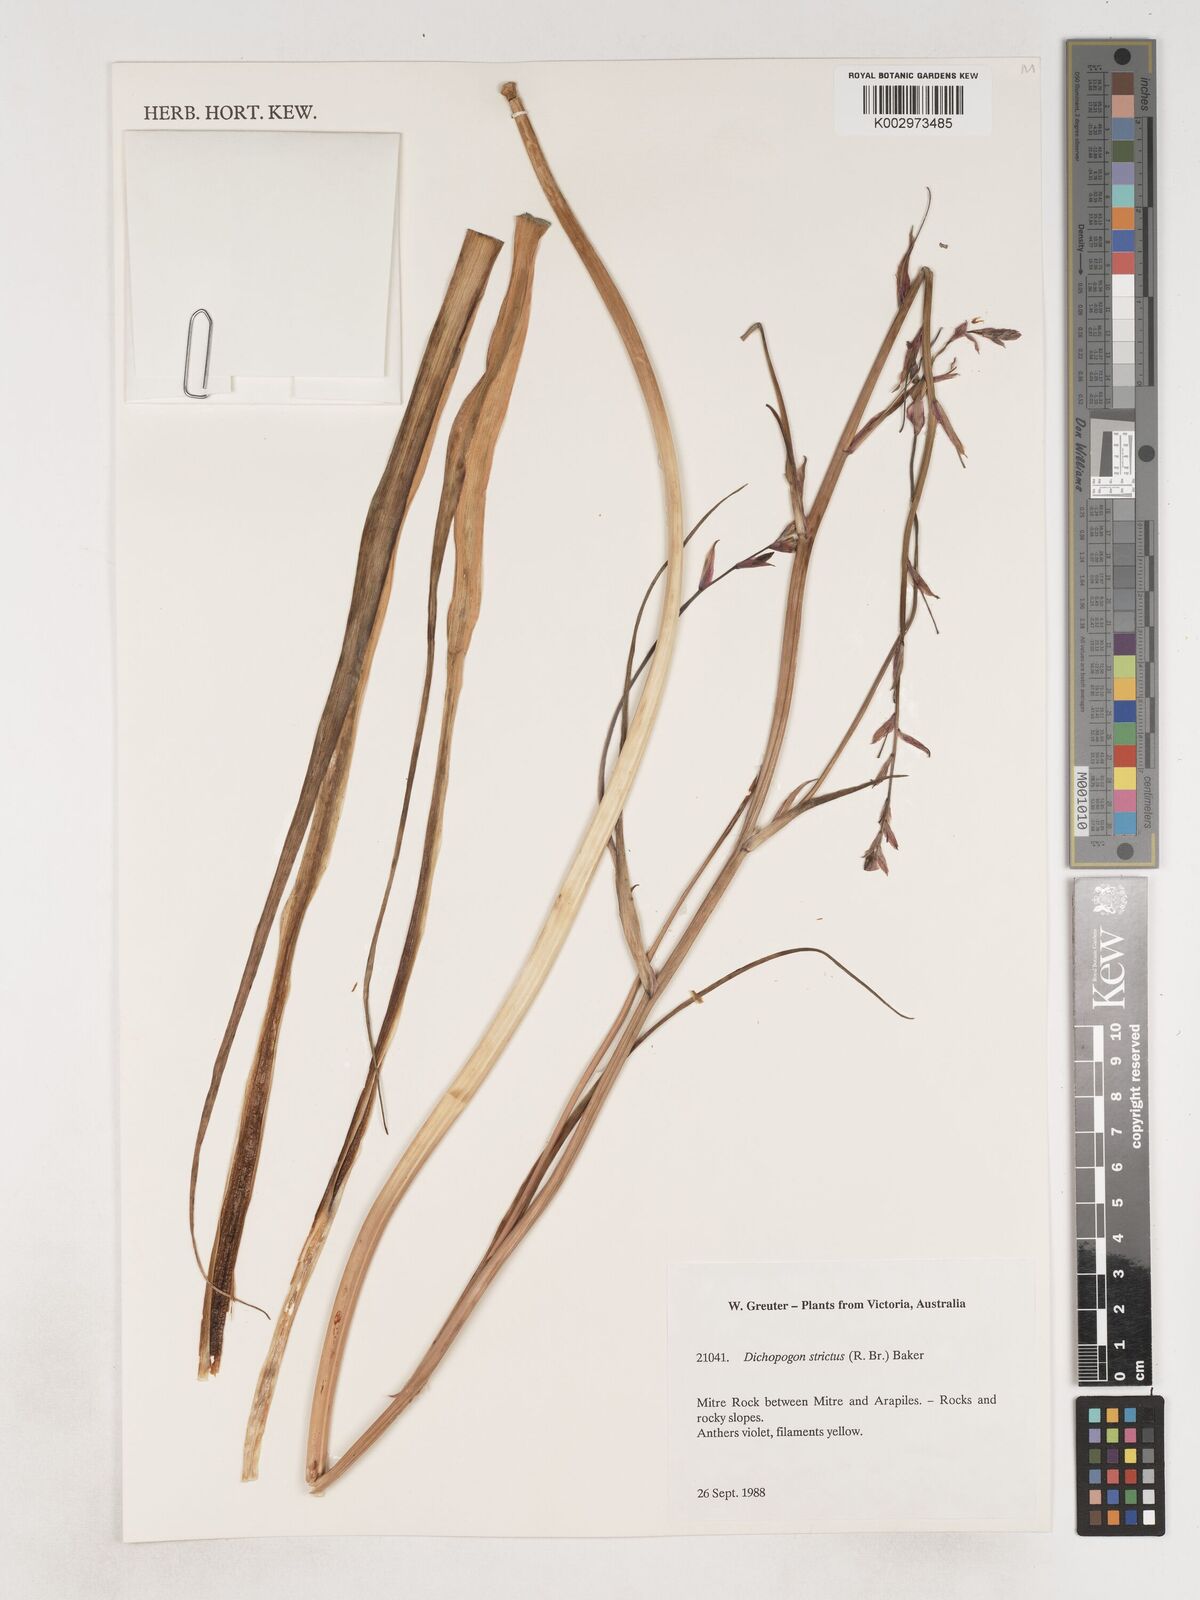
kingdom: Plantae
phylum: Tracheophyta
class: Liliopsida
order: Asparagales
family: Asparagaceae
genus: Arthropodium
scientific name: Arthropodium strictum
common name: Chocolate-lily
